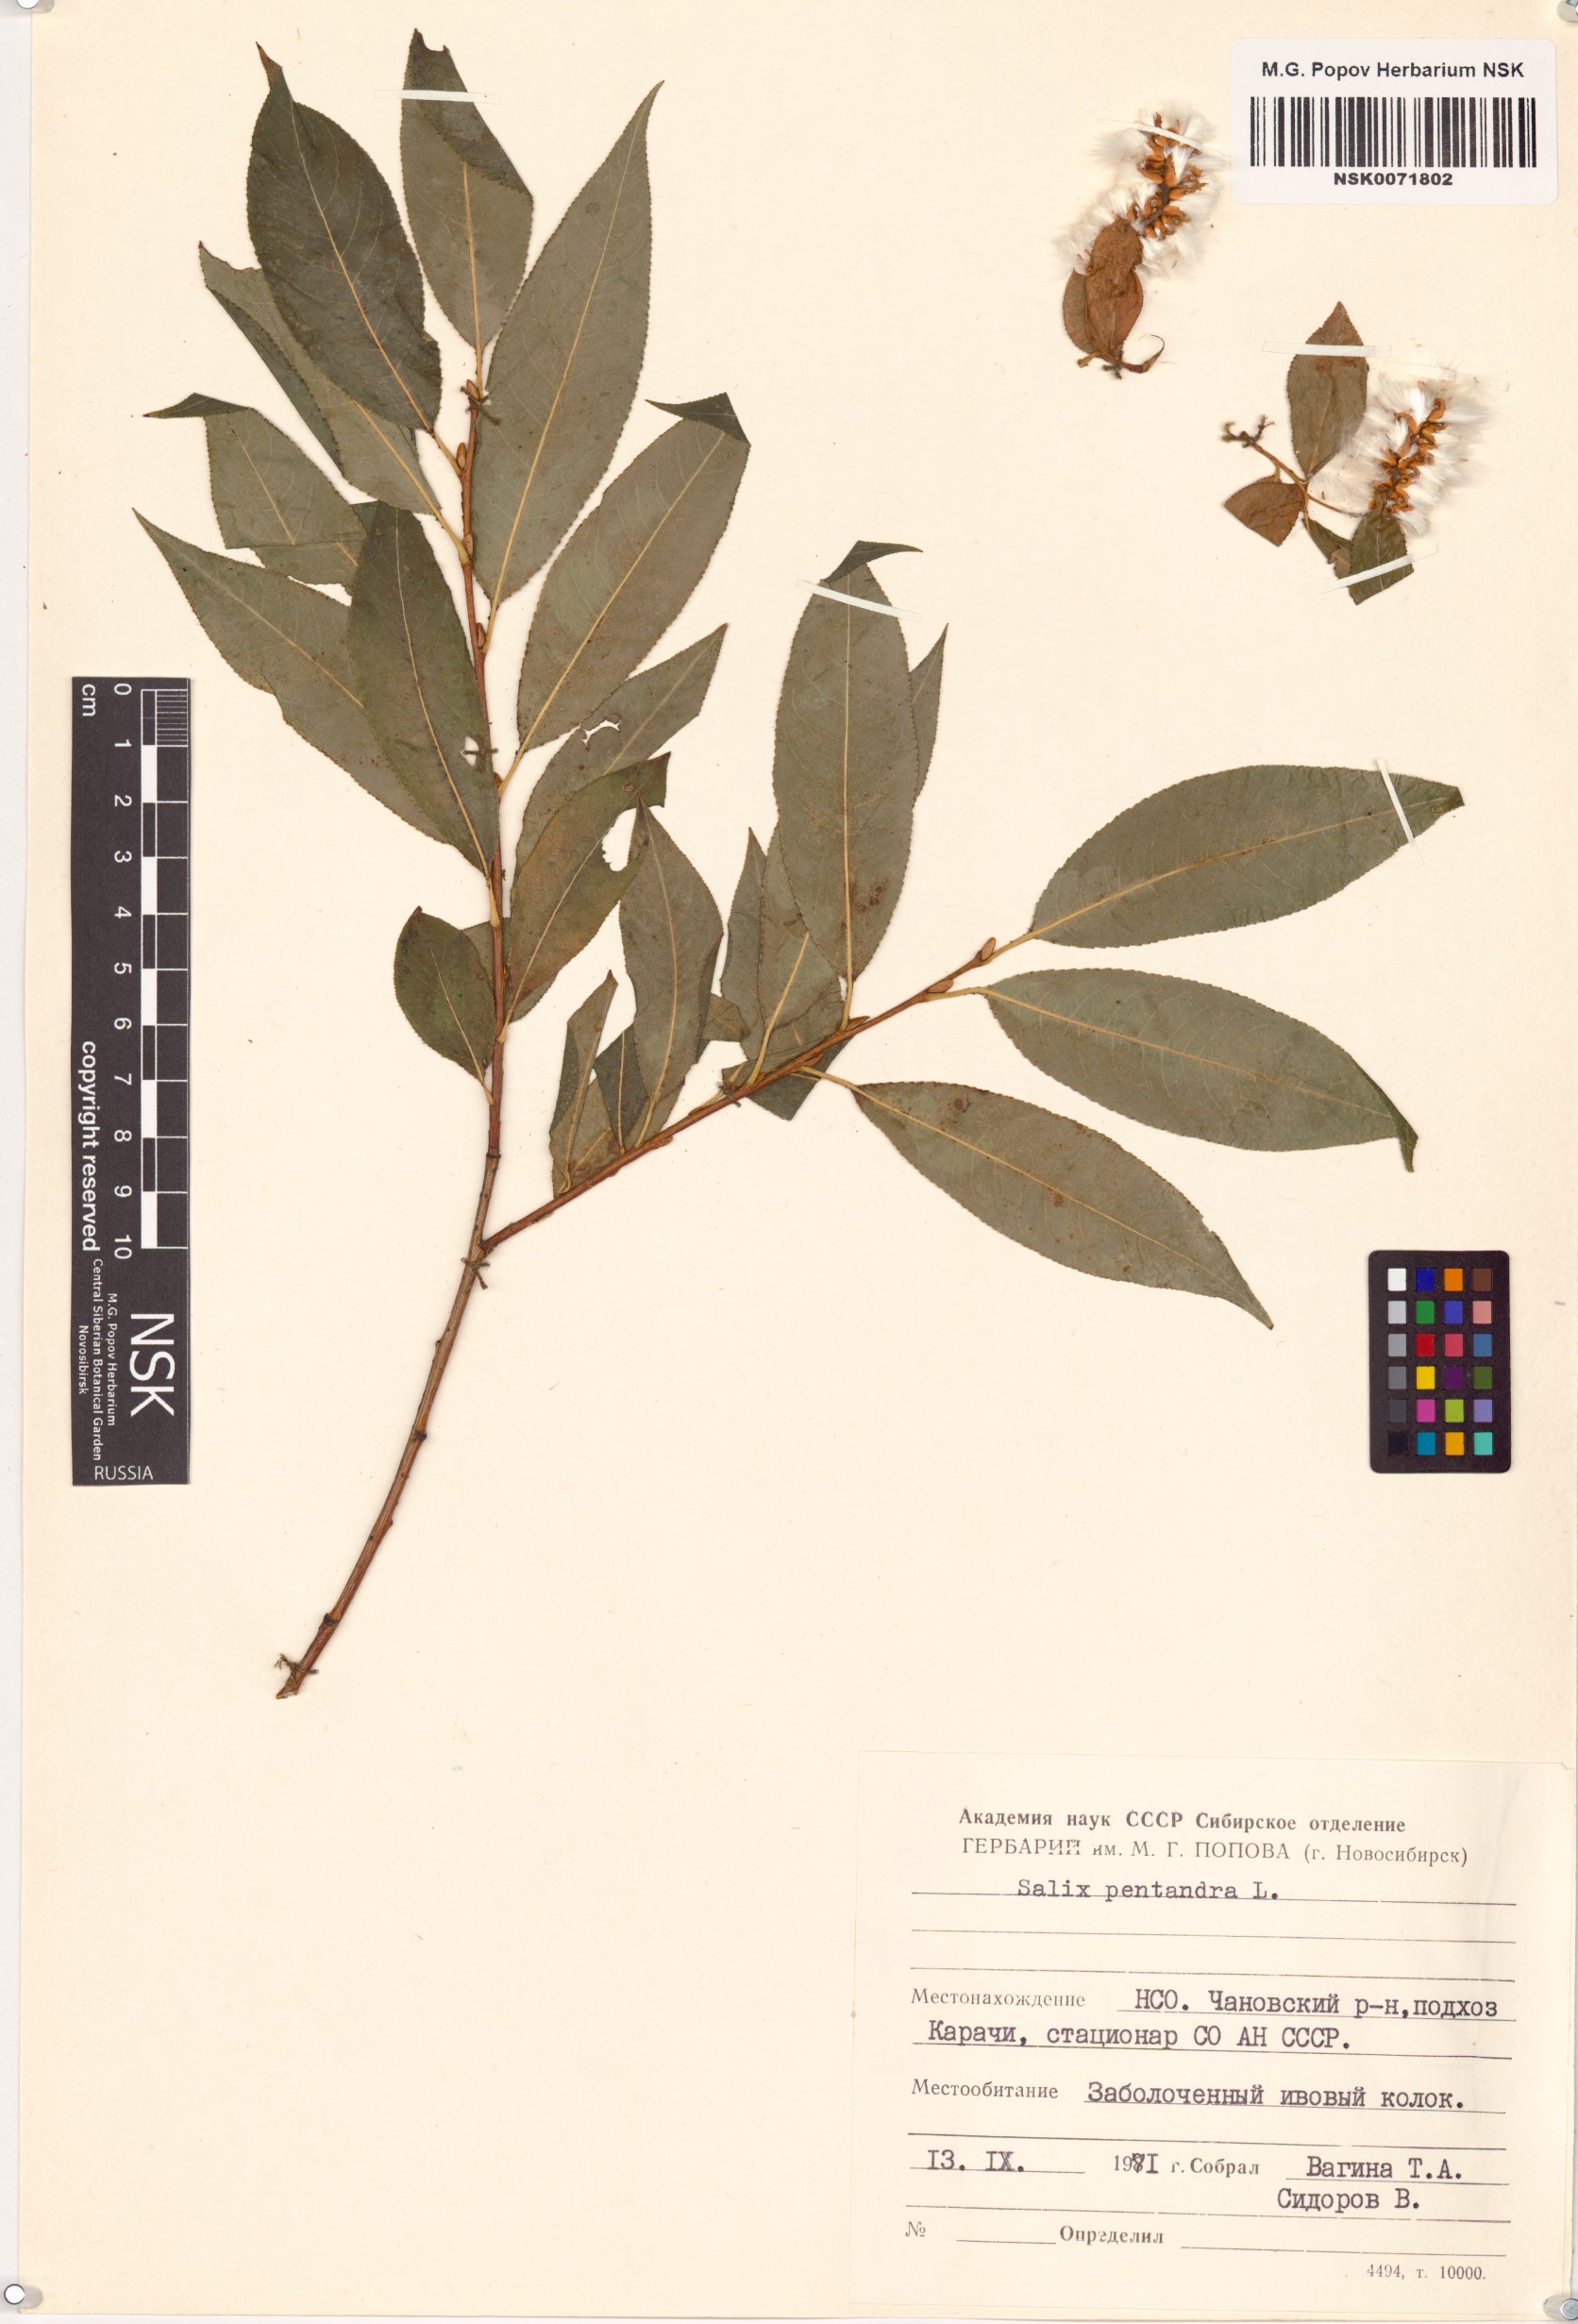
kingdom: Plantae
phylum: Tracheophyta
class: Magnoliopsida
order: Malpighiales
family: Salicaceae
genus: Salix
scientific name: Salix pentandra
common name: Bay willow
